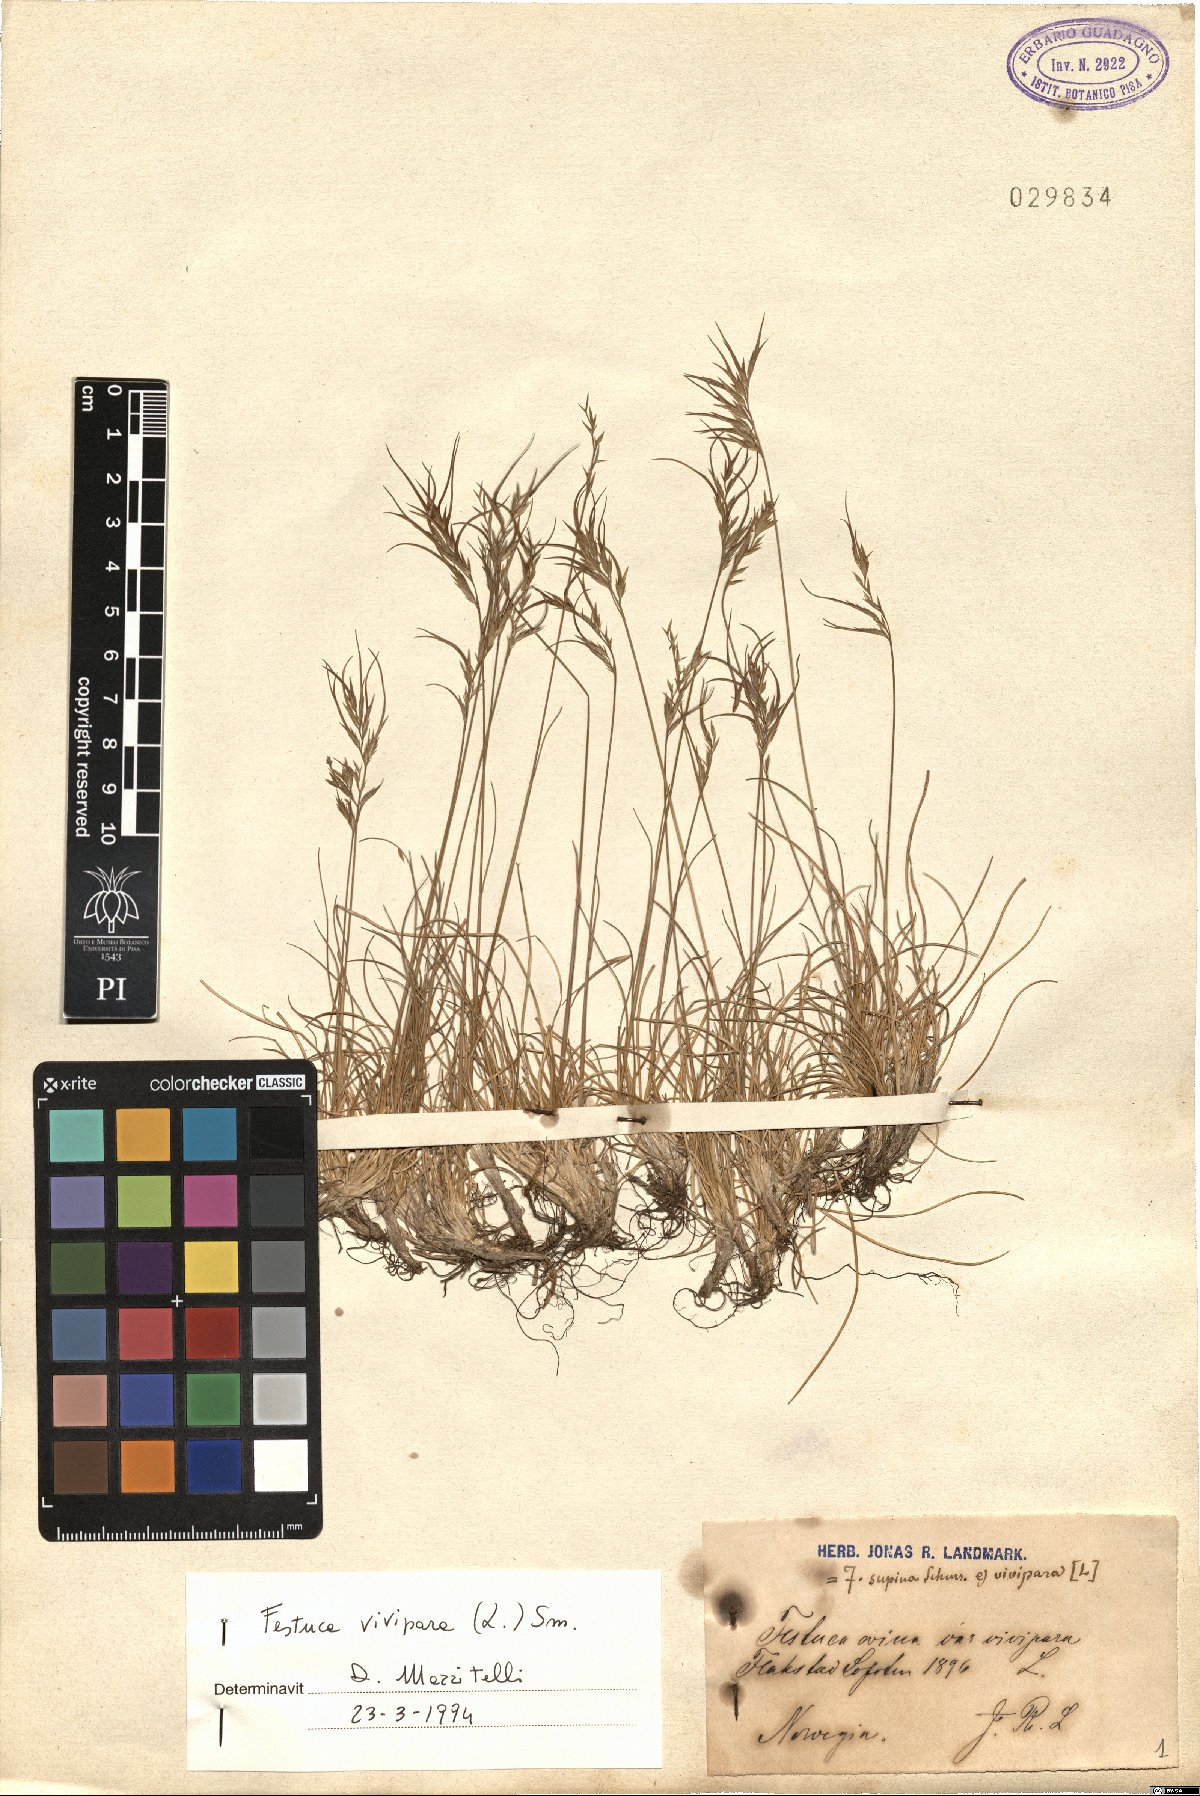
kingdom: Plantae
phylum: Tracheophyta
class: Liliopsida
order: Poales
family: Poaceae
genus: Festuca
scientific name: Festuca vivipara
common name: Viviparous sheep's-fescue
